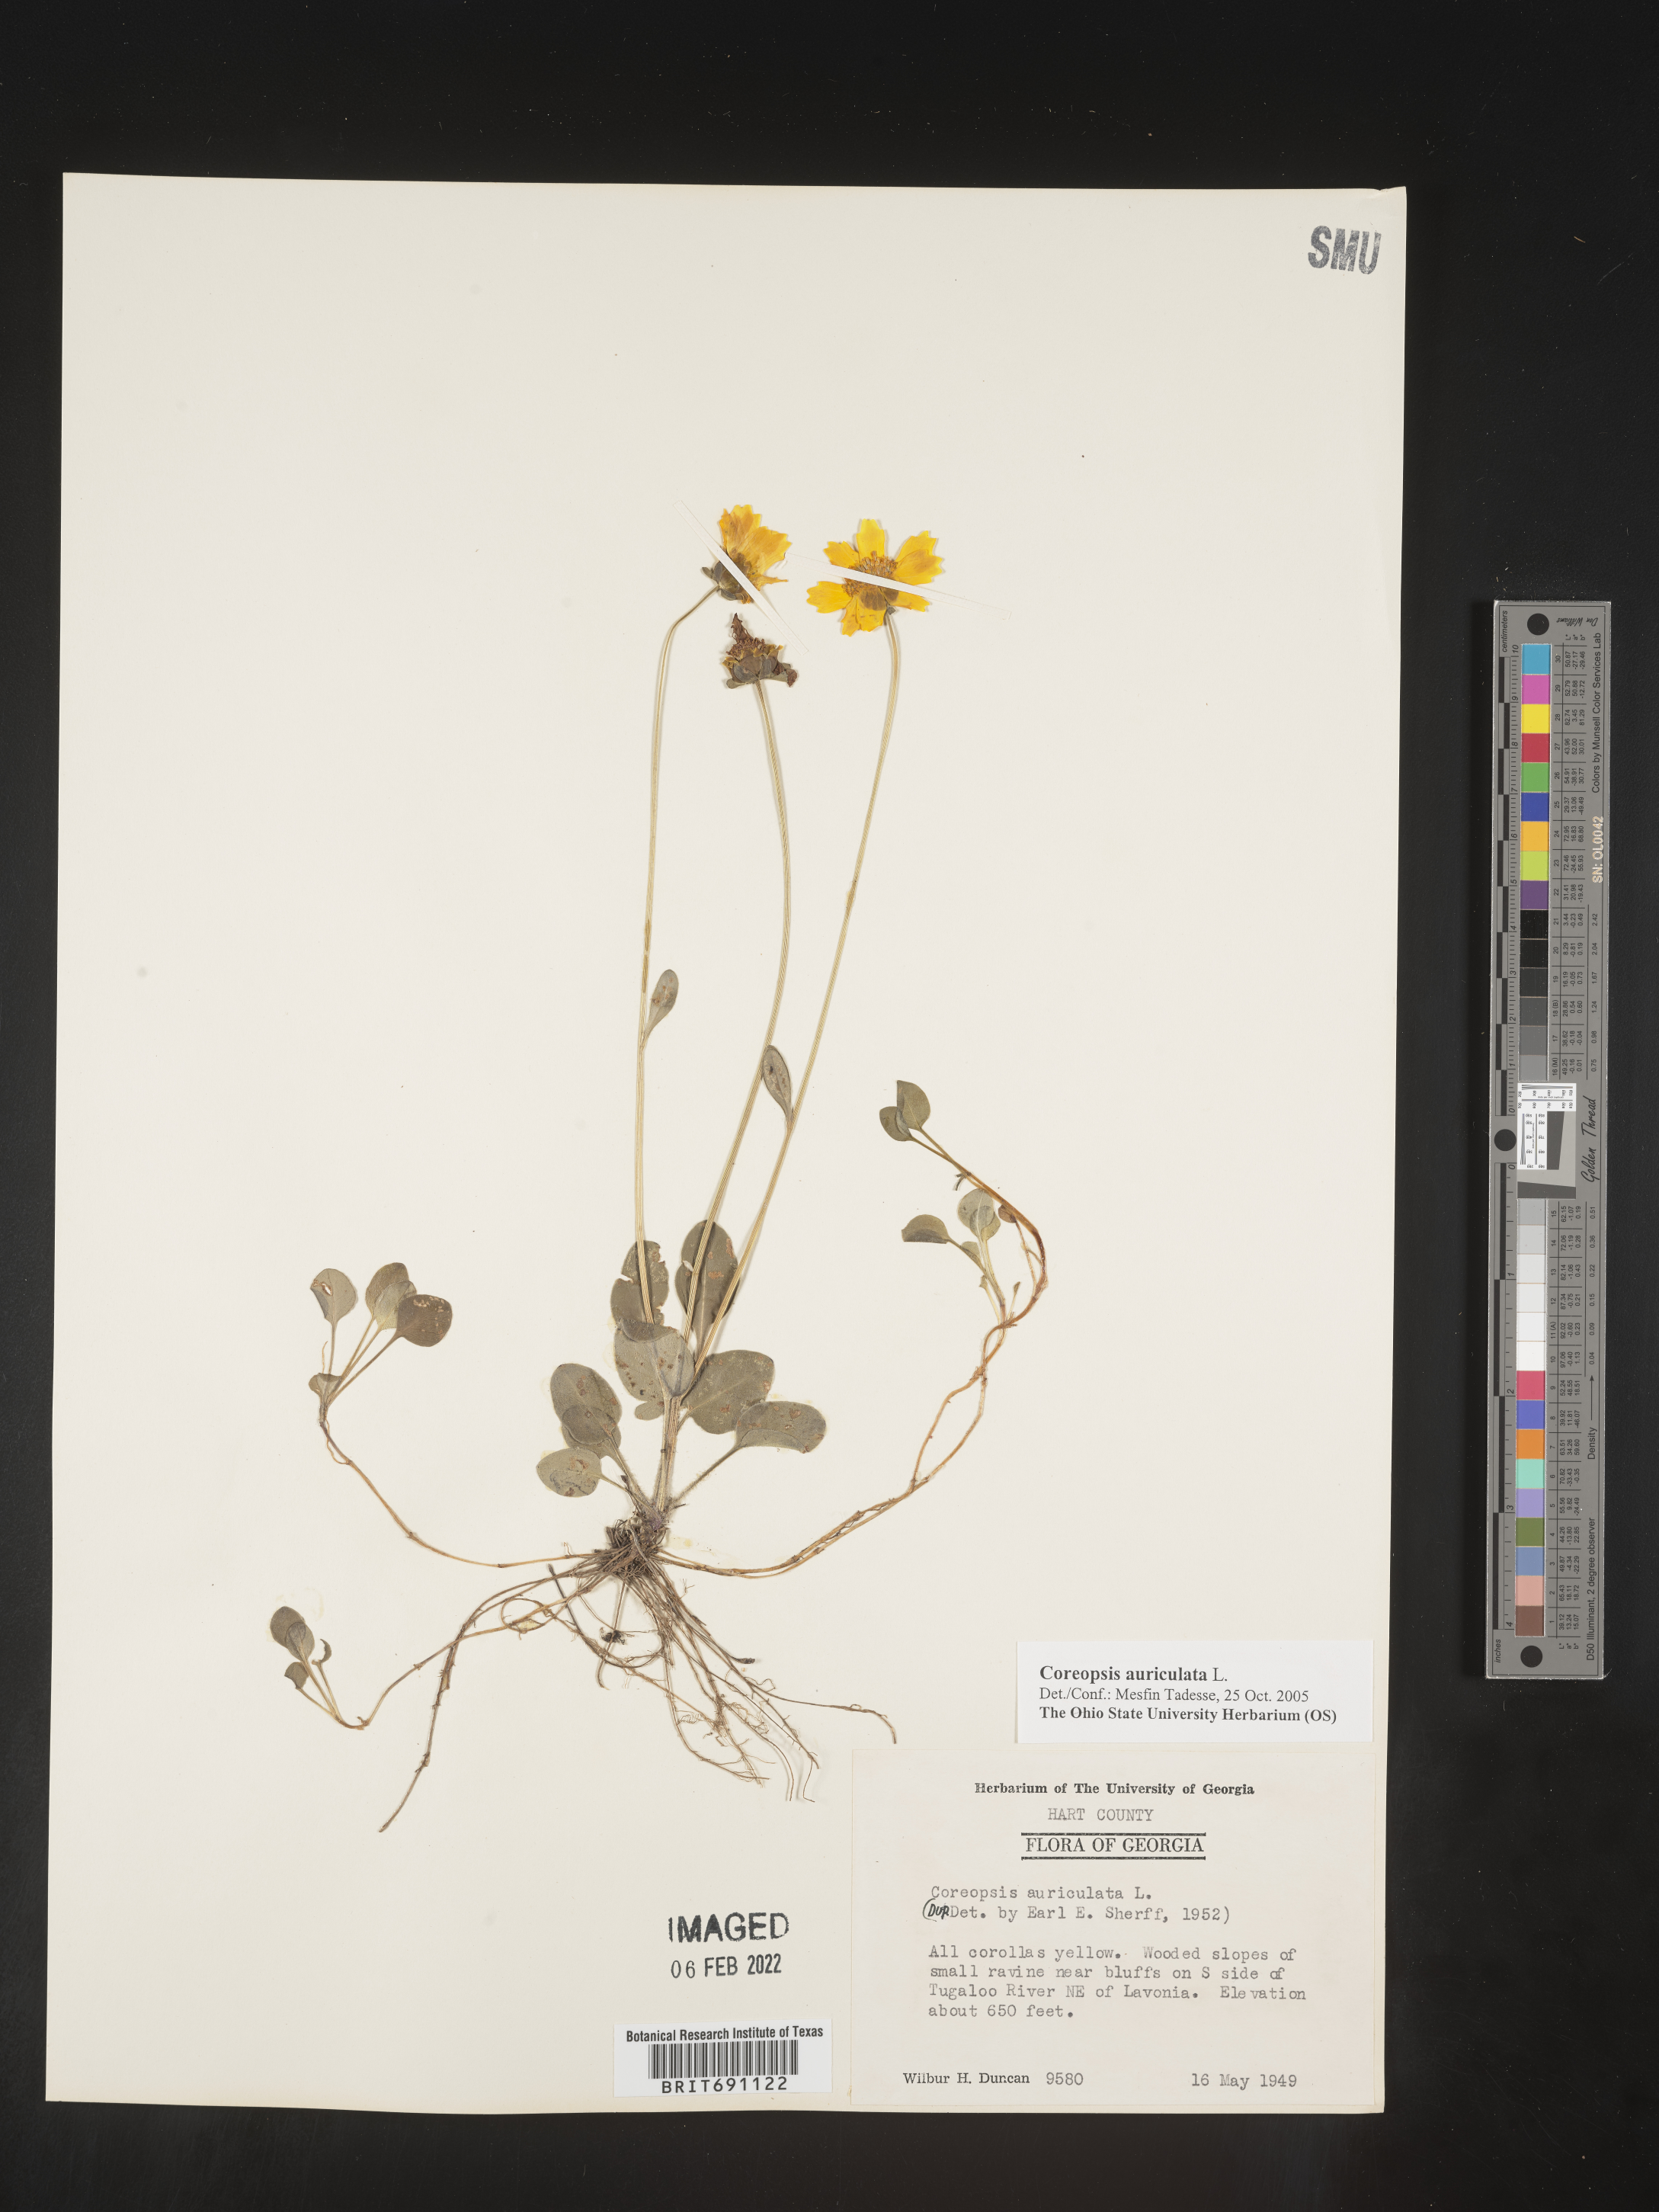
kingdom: Plantae
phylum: Tracheophyta
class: Magnoliopsida
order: Asterales
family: Asteraceae
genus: Coreopsis
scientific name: Coreopsis auriculata
